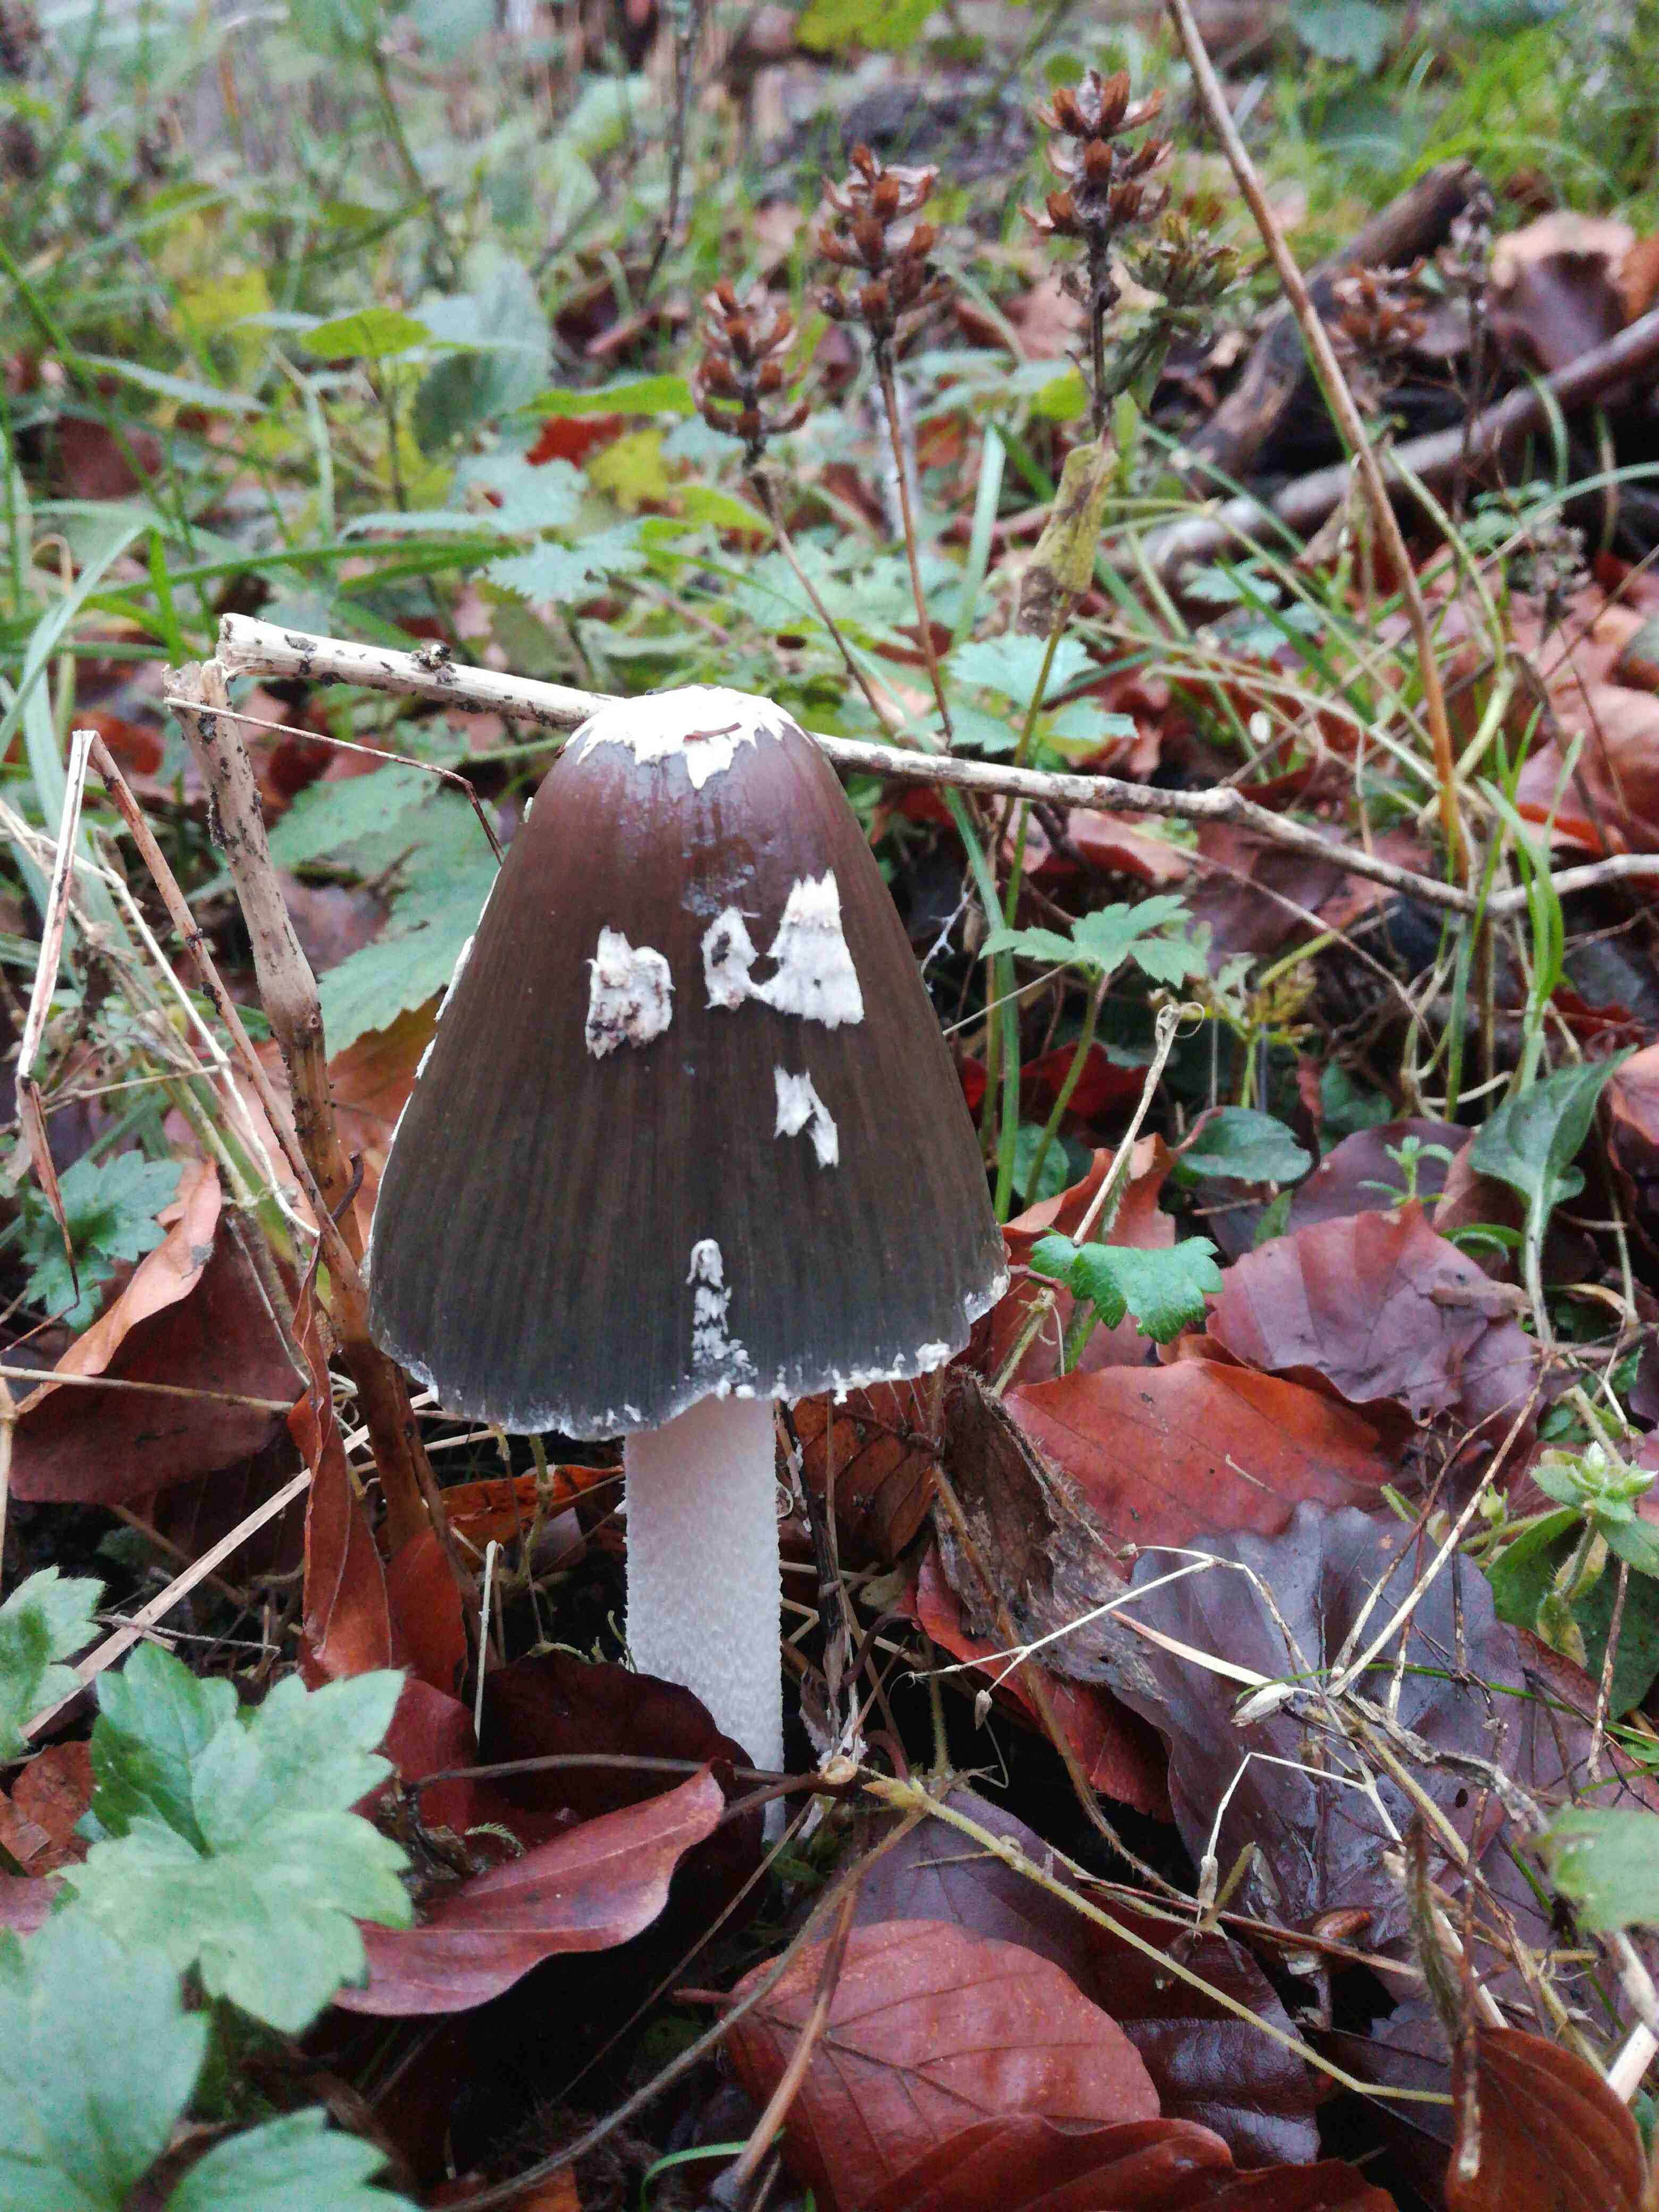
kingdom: Fungi
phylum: Basidiomycota
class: Agaricomycetes
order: Agaricales
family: Psathyrellaceae
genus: Coprinopsis
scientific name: Coprinopsis picacea
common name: skade-blækhat
